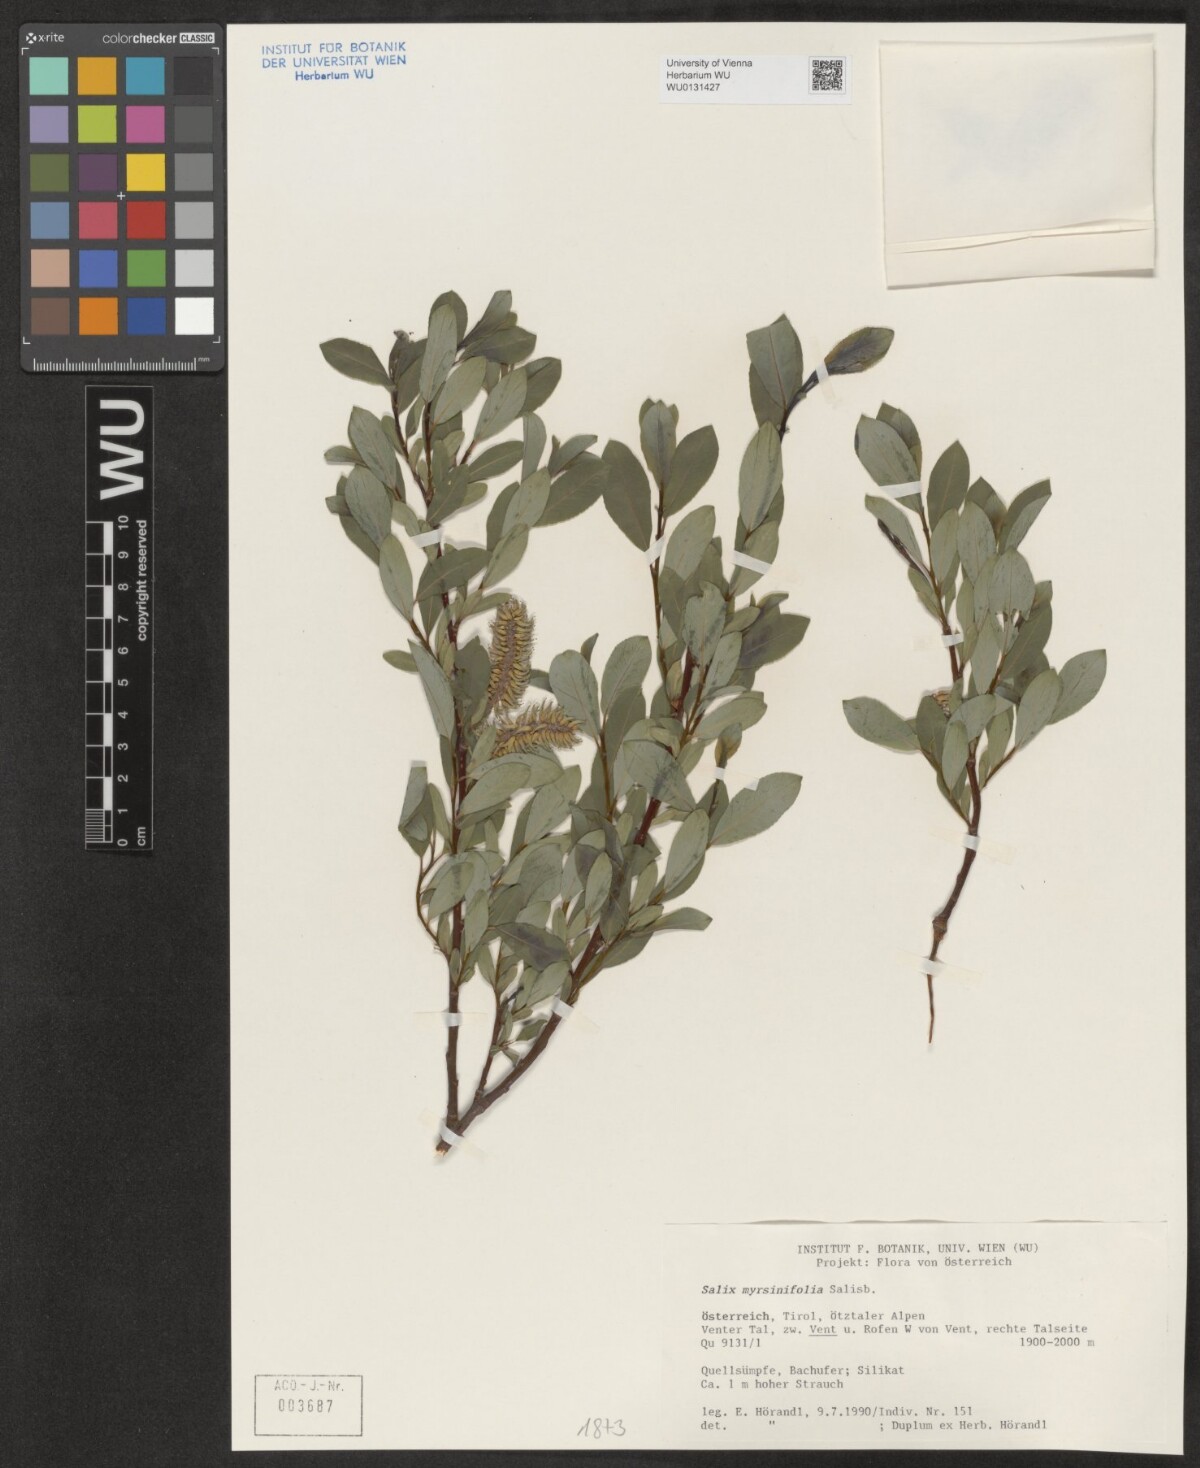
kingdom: Plantae
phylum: Tracheophyta
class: Magnoliopsida
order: Malpighiales
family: Salicaceae
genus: Salix
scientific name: Salix myrsinifolia
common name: Dark-leaved willow
